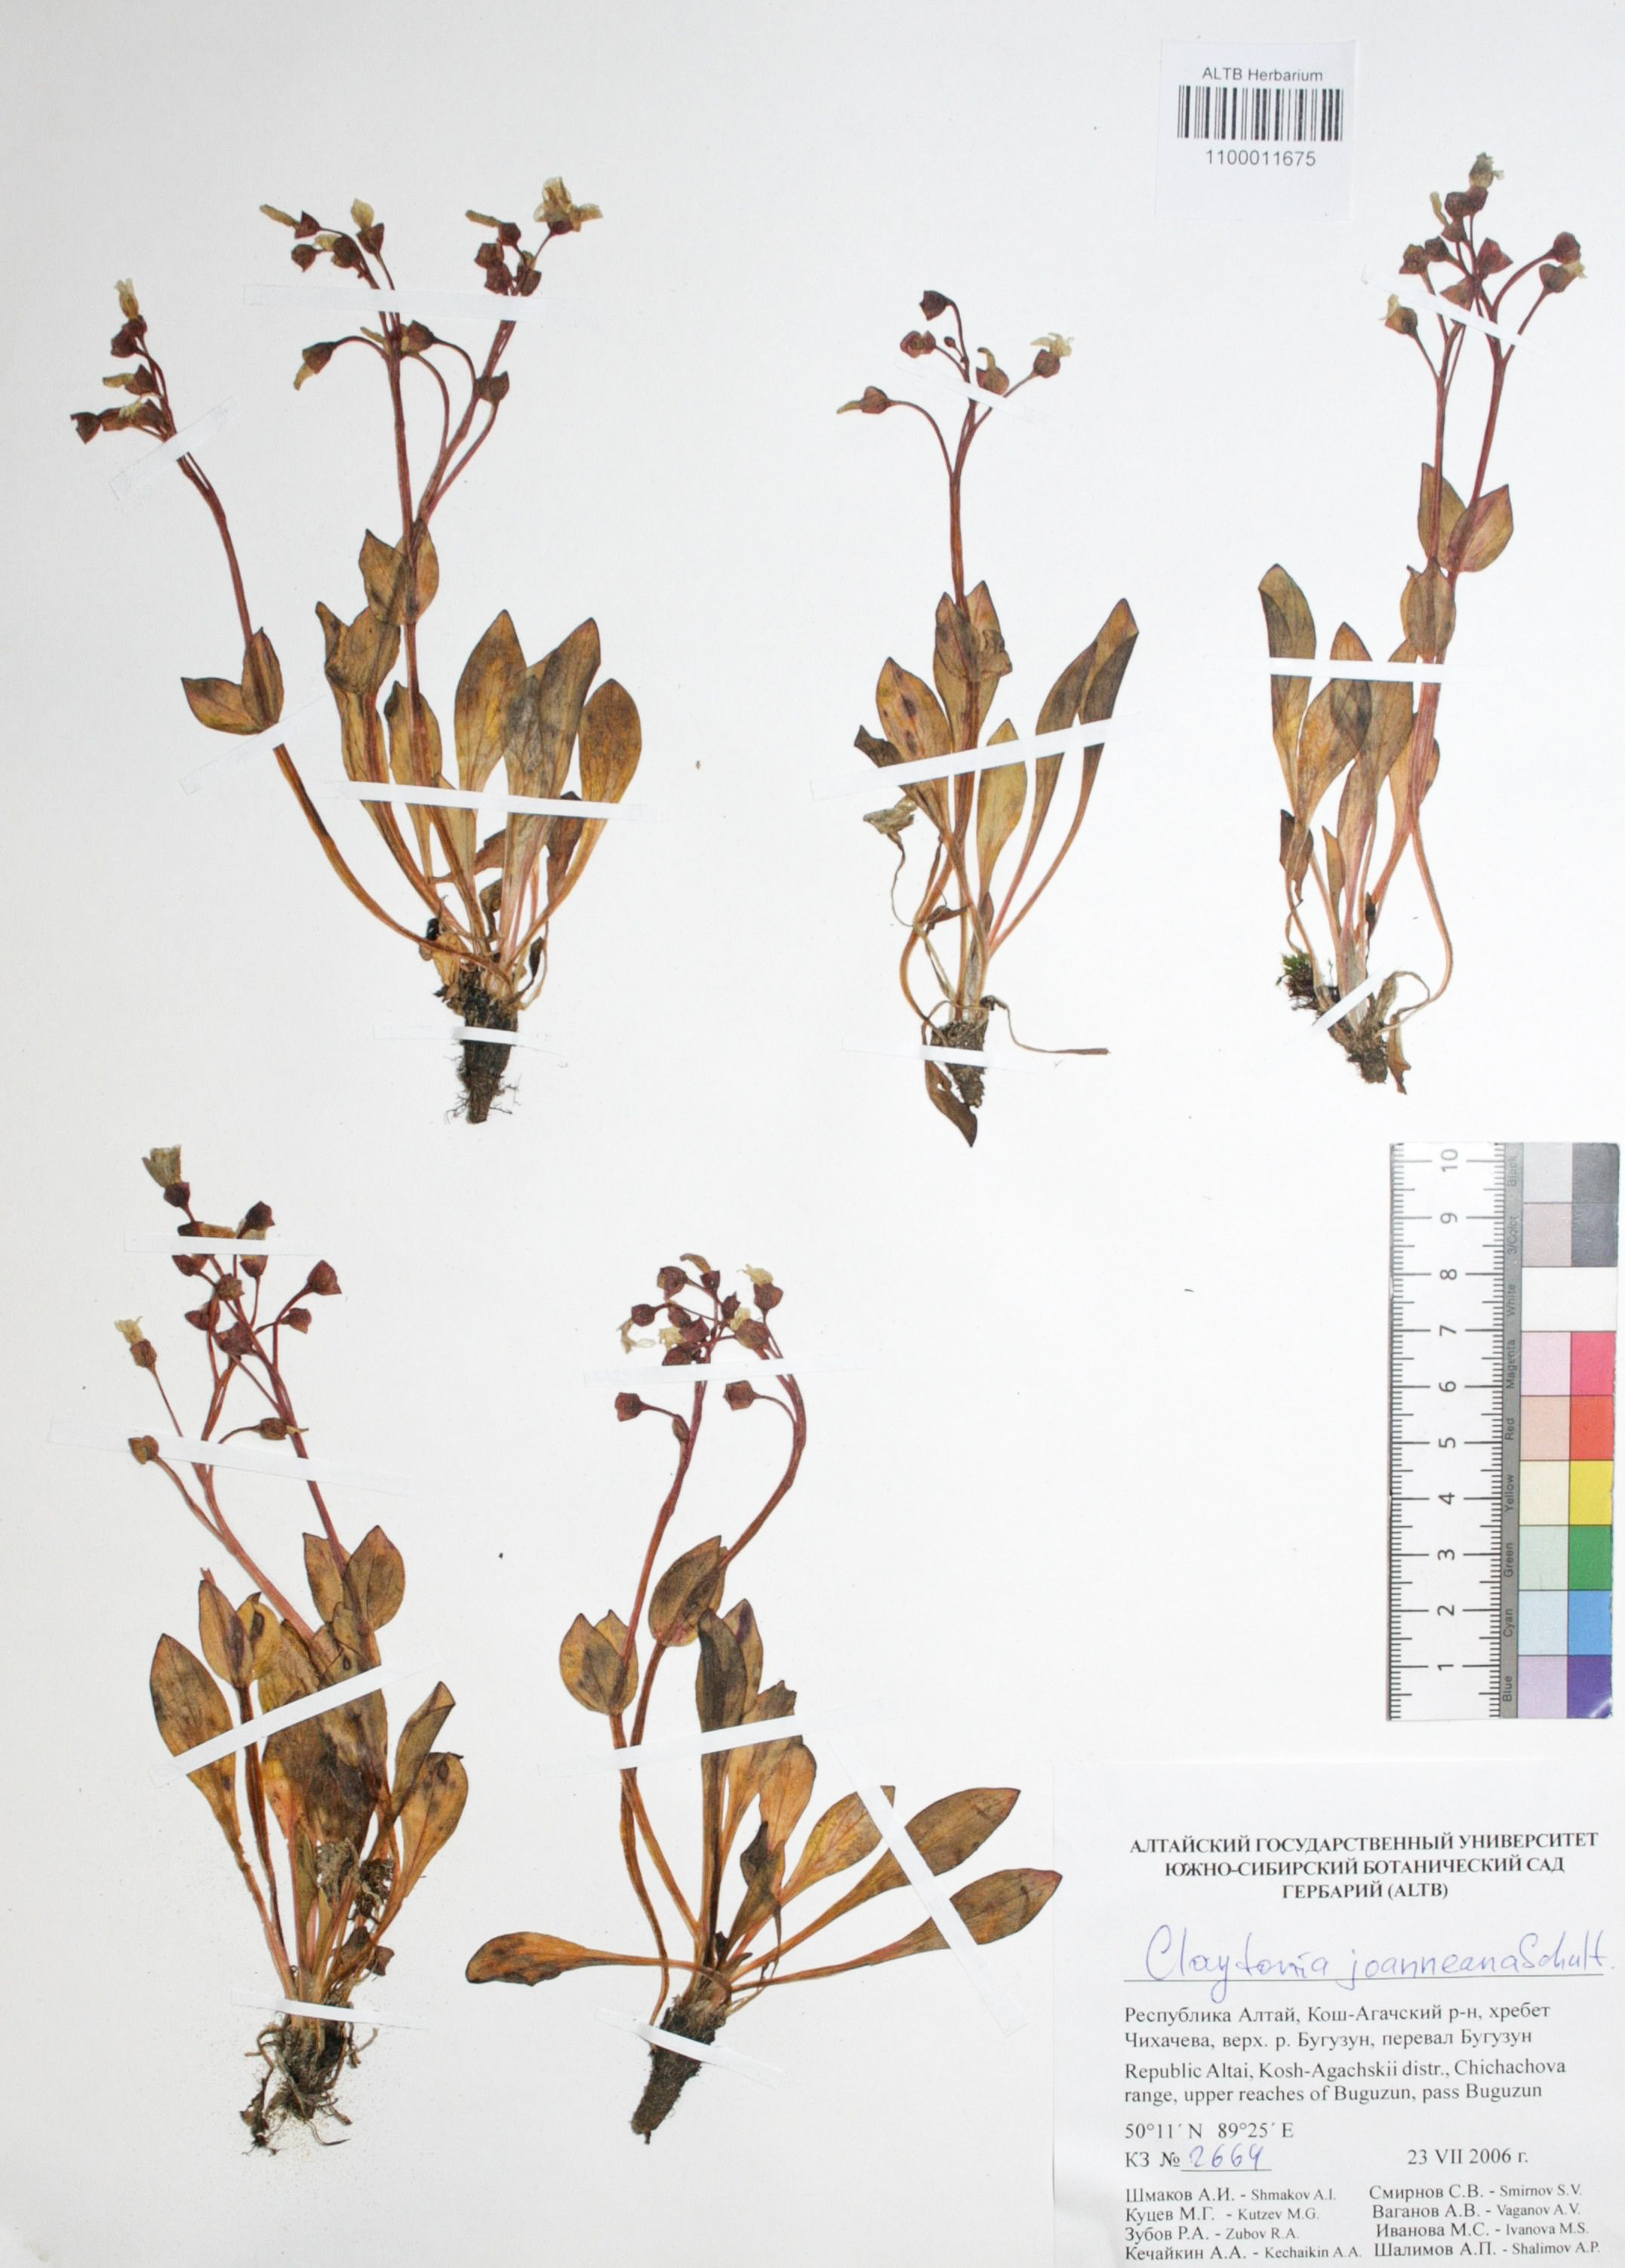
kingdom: Plantae
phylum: Tracheophyta
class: Magnoliopsida
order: Caryophyllales
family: Montiaceae
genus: Claytonia
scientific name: Claytonia joanneana
